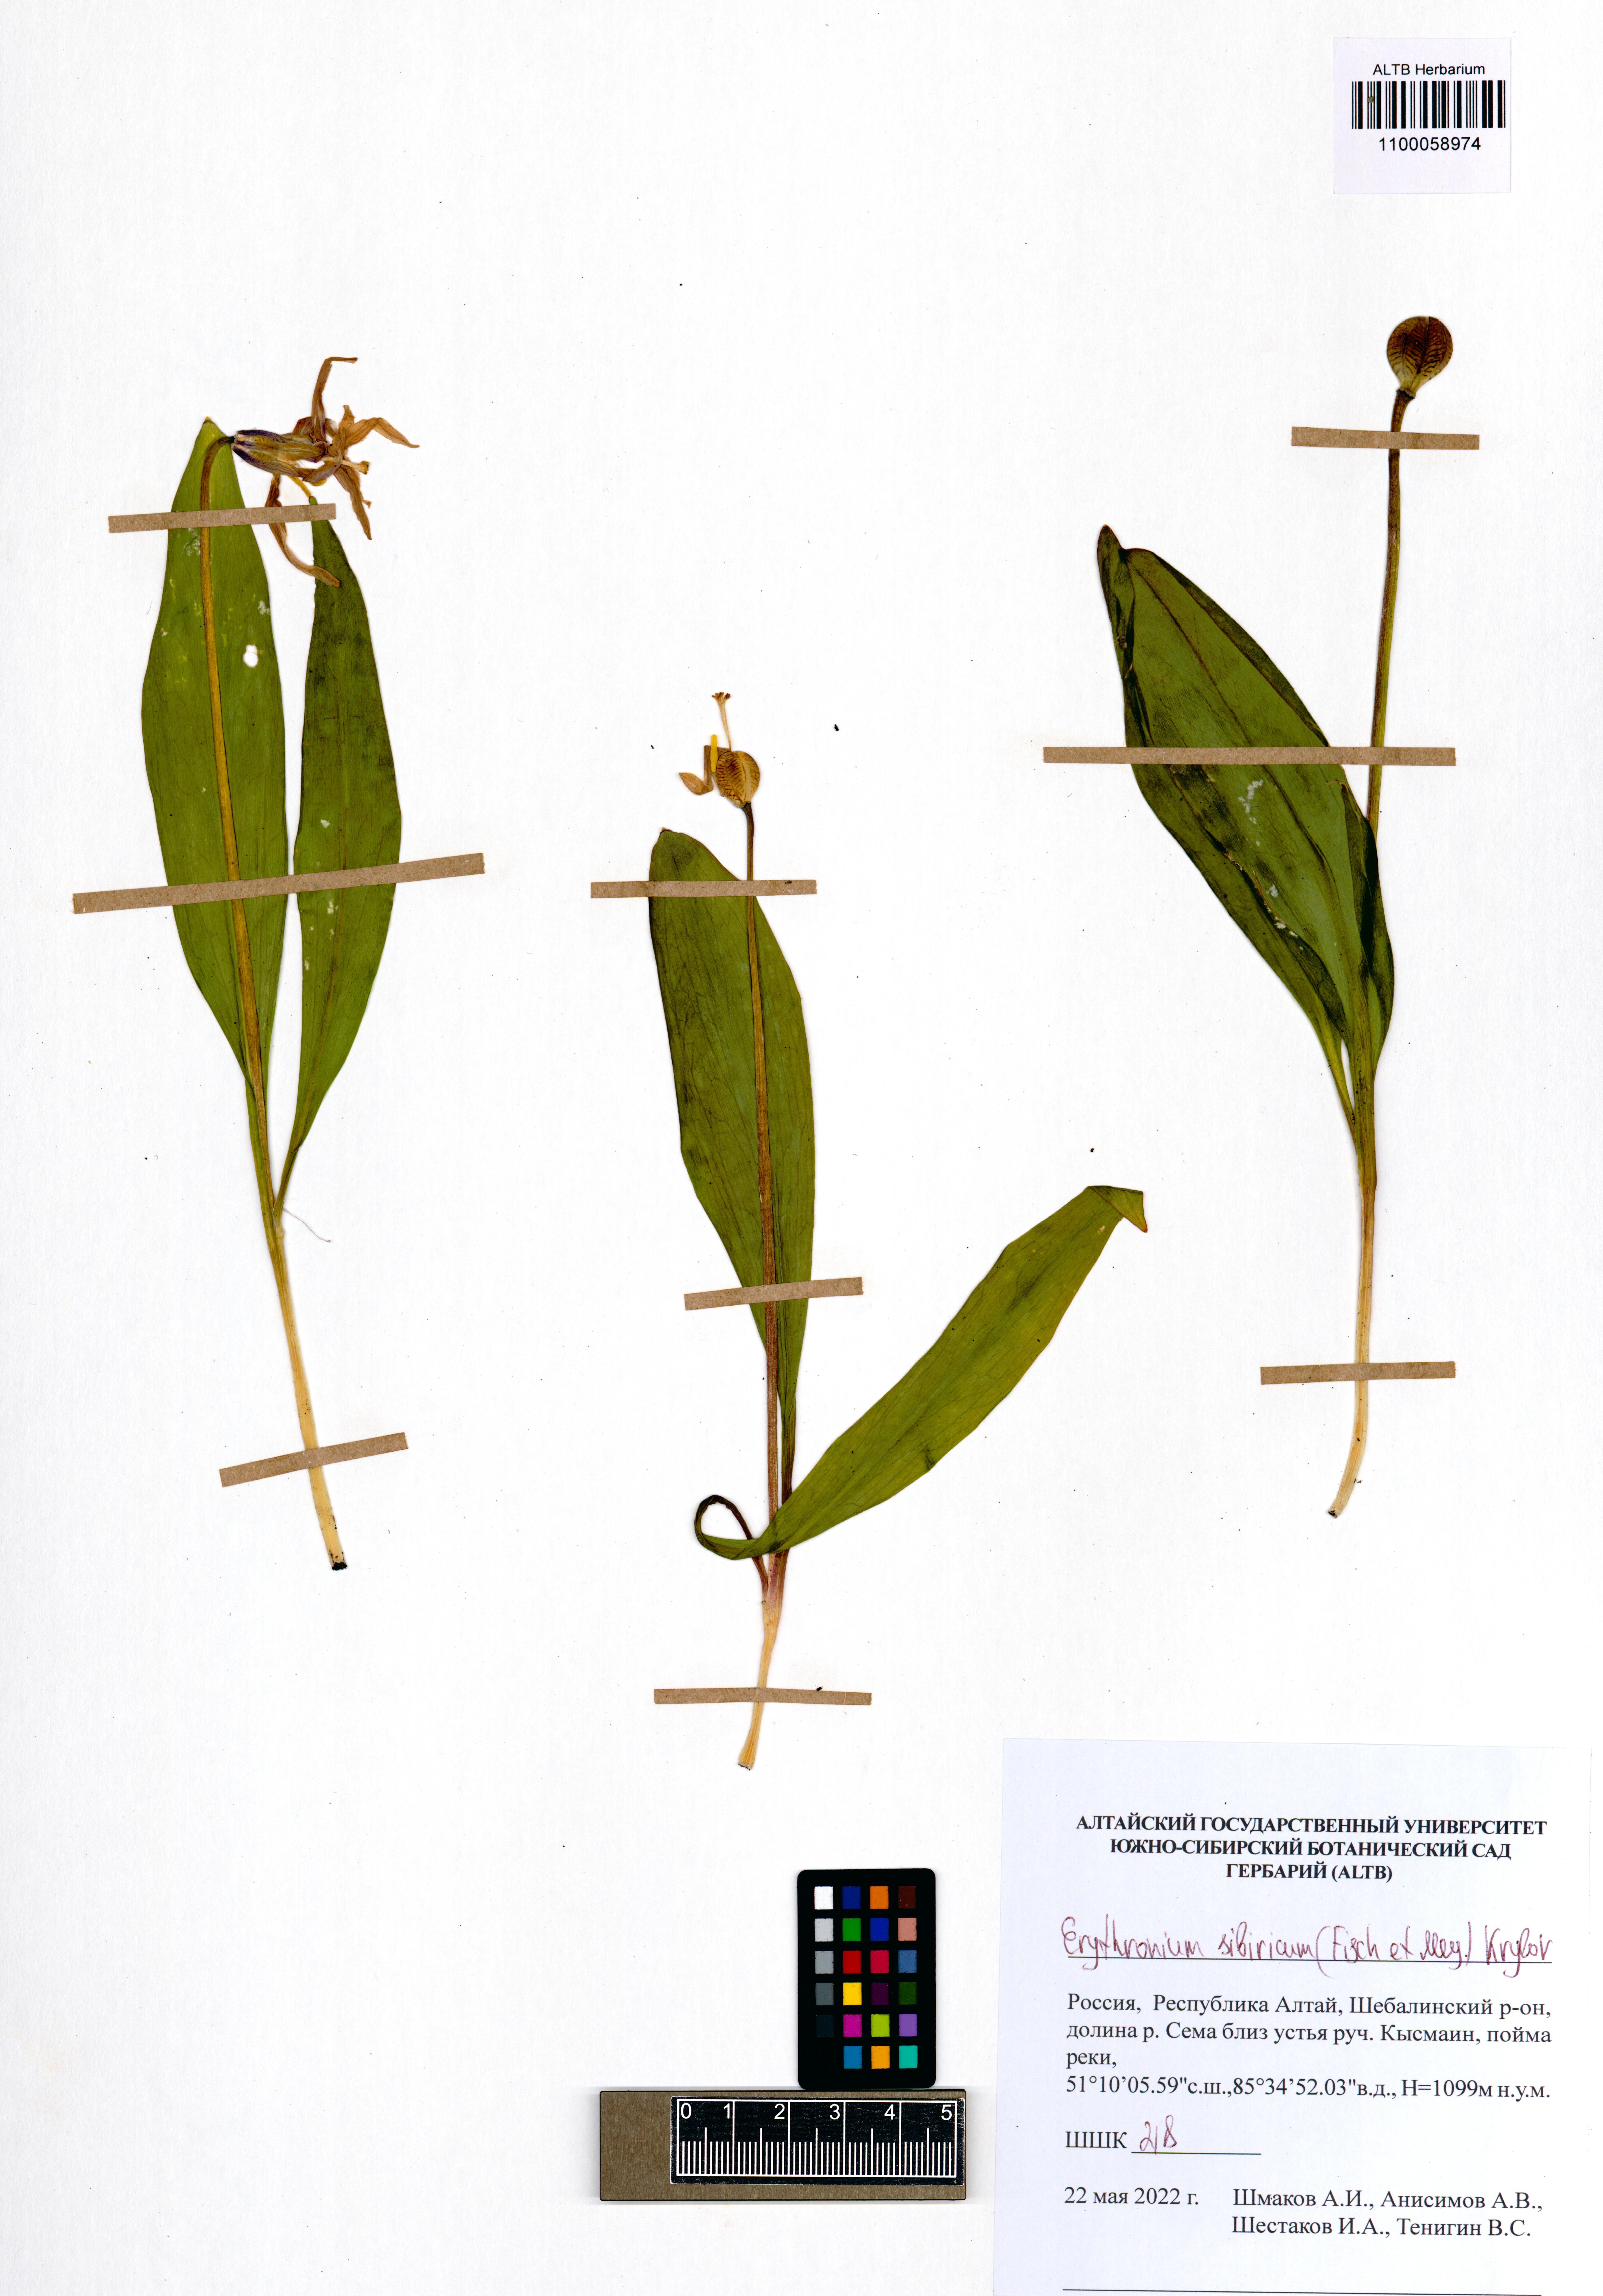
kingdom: Plantae
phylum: Tracheophyta
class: Liliopsida
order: Liliales
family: Liliaceae
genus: Erythronium
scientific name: Erythronium sibiricum
